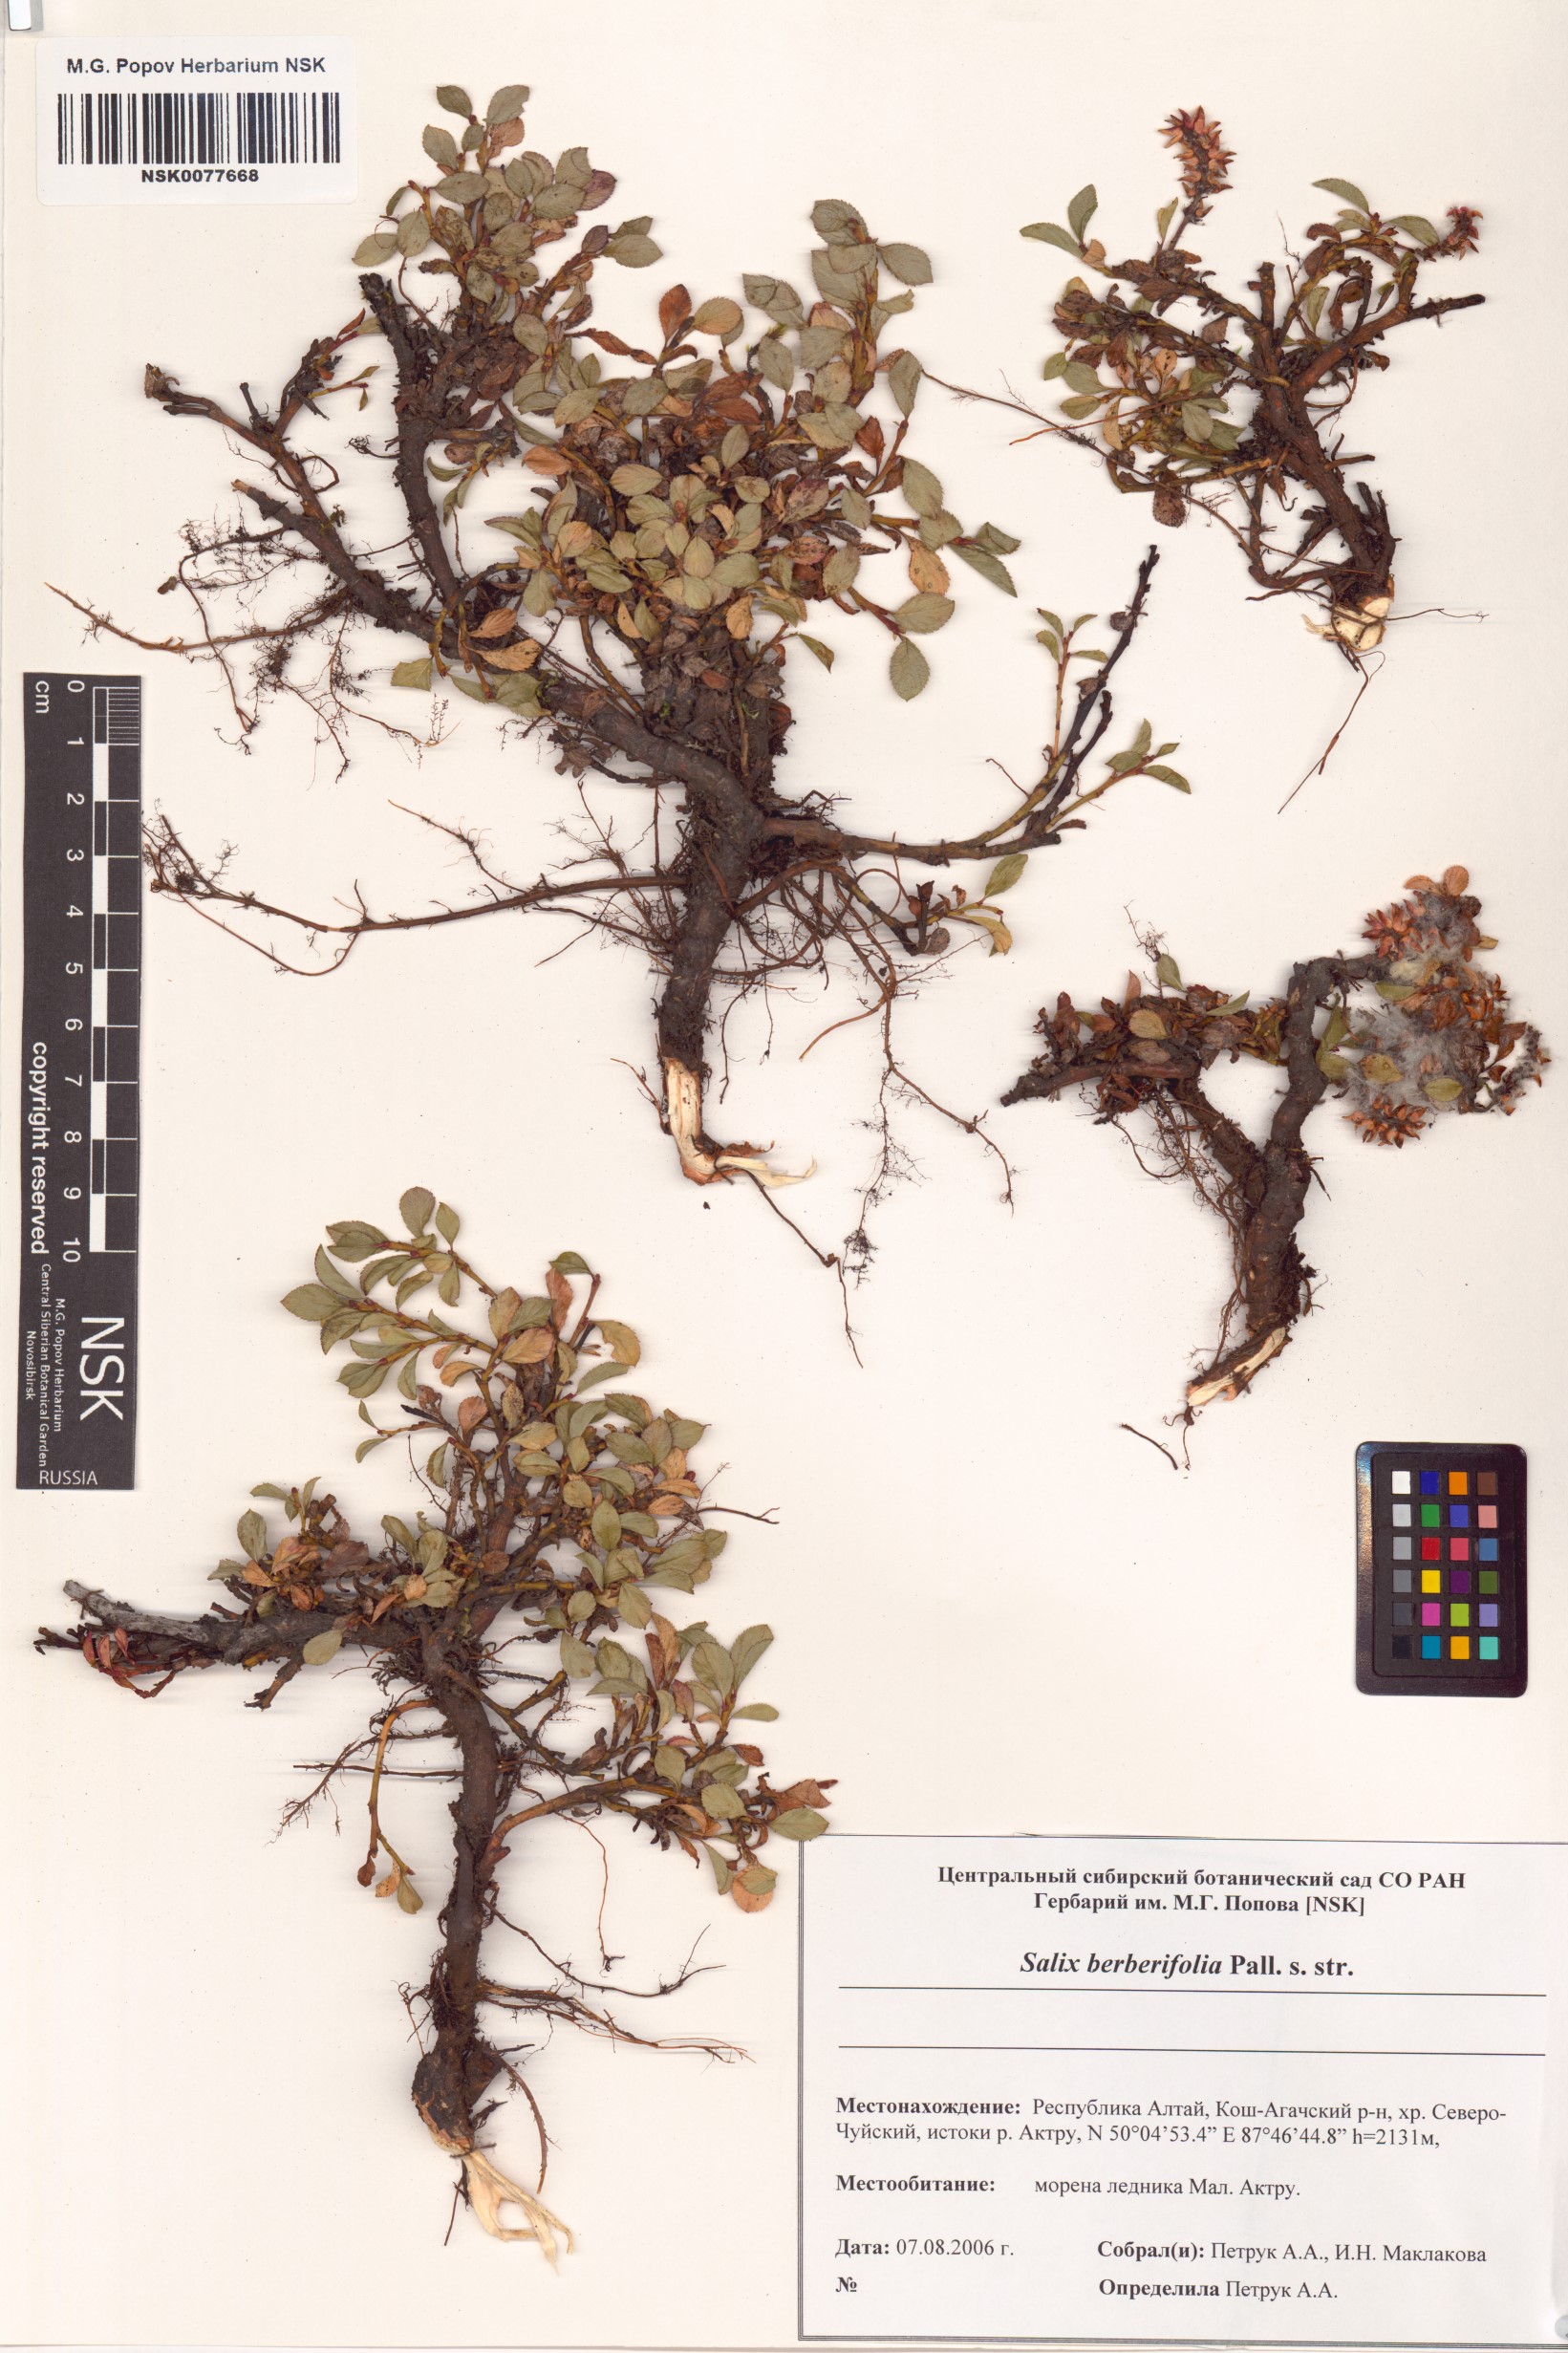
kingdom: Plantae
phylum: Tracheophyta
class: Magnoliopsida
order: Malpighiales
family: Salicaceae
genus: Salix
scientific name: Salix berberifolia
